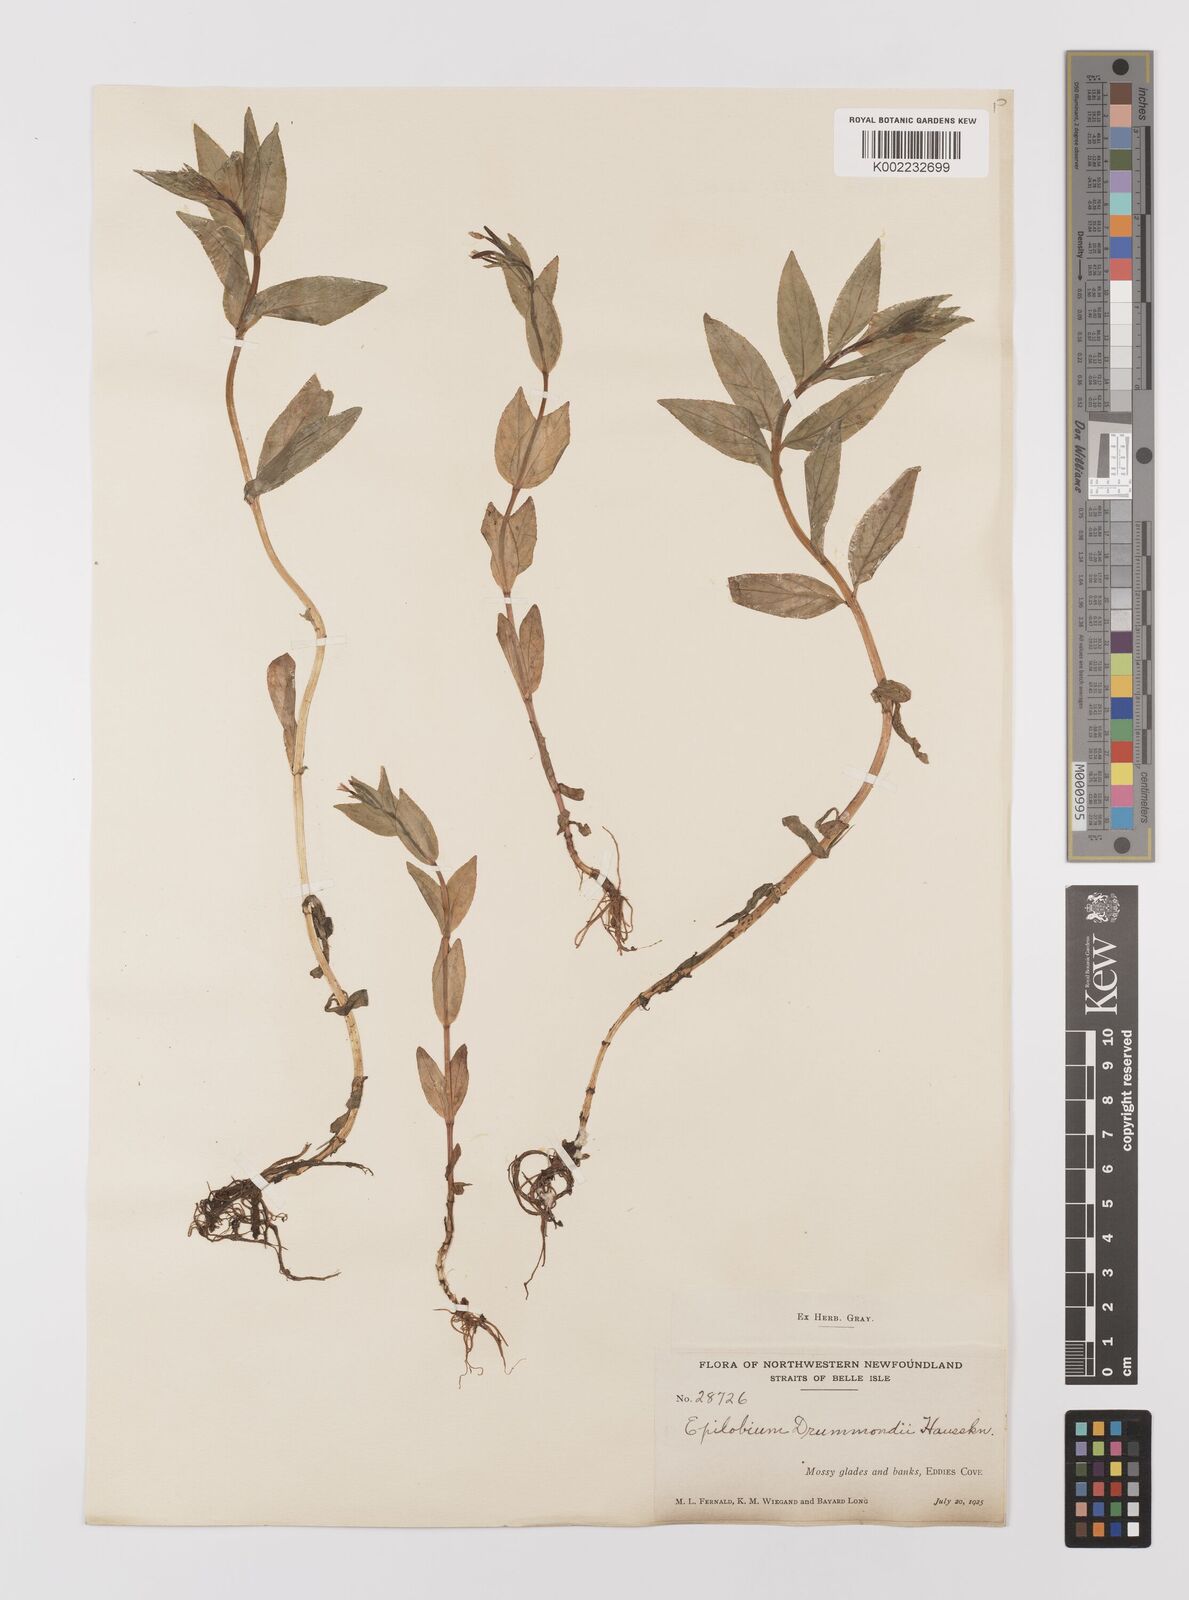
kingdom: Plantae
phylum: Tracheophyta
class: Magnoliopsida
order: Myrtales
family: Onagraceae
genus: Epilobium
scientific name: Epilobium
